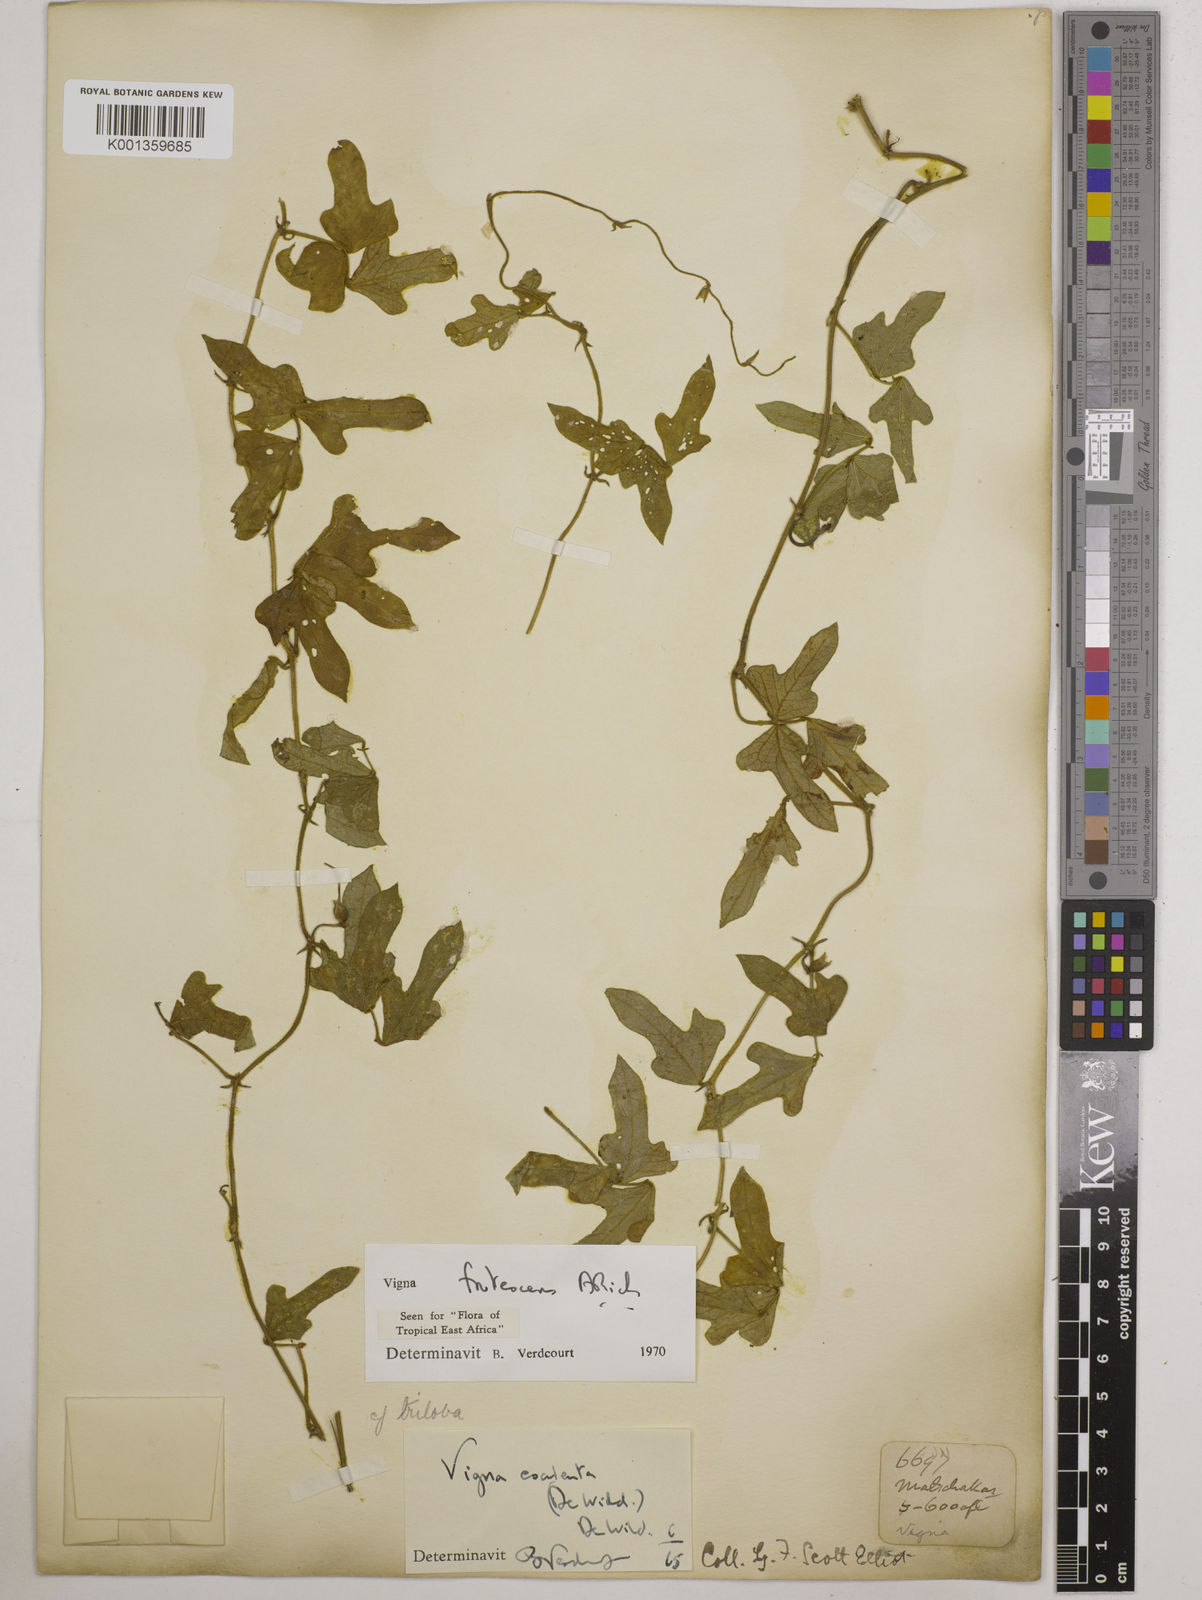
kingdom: Plantae
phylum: Tracheophyta
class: Magnoliopsida
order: Fabales
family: Fabaceae
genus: Vigna
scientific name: Vigna frutescens
